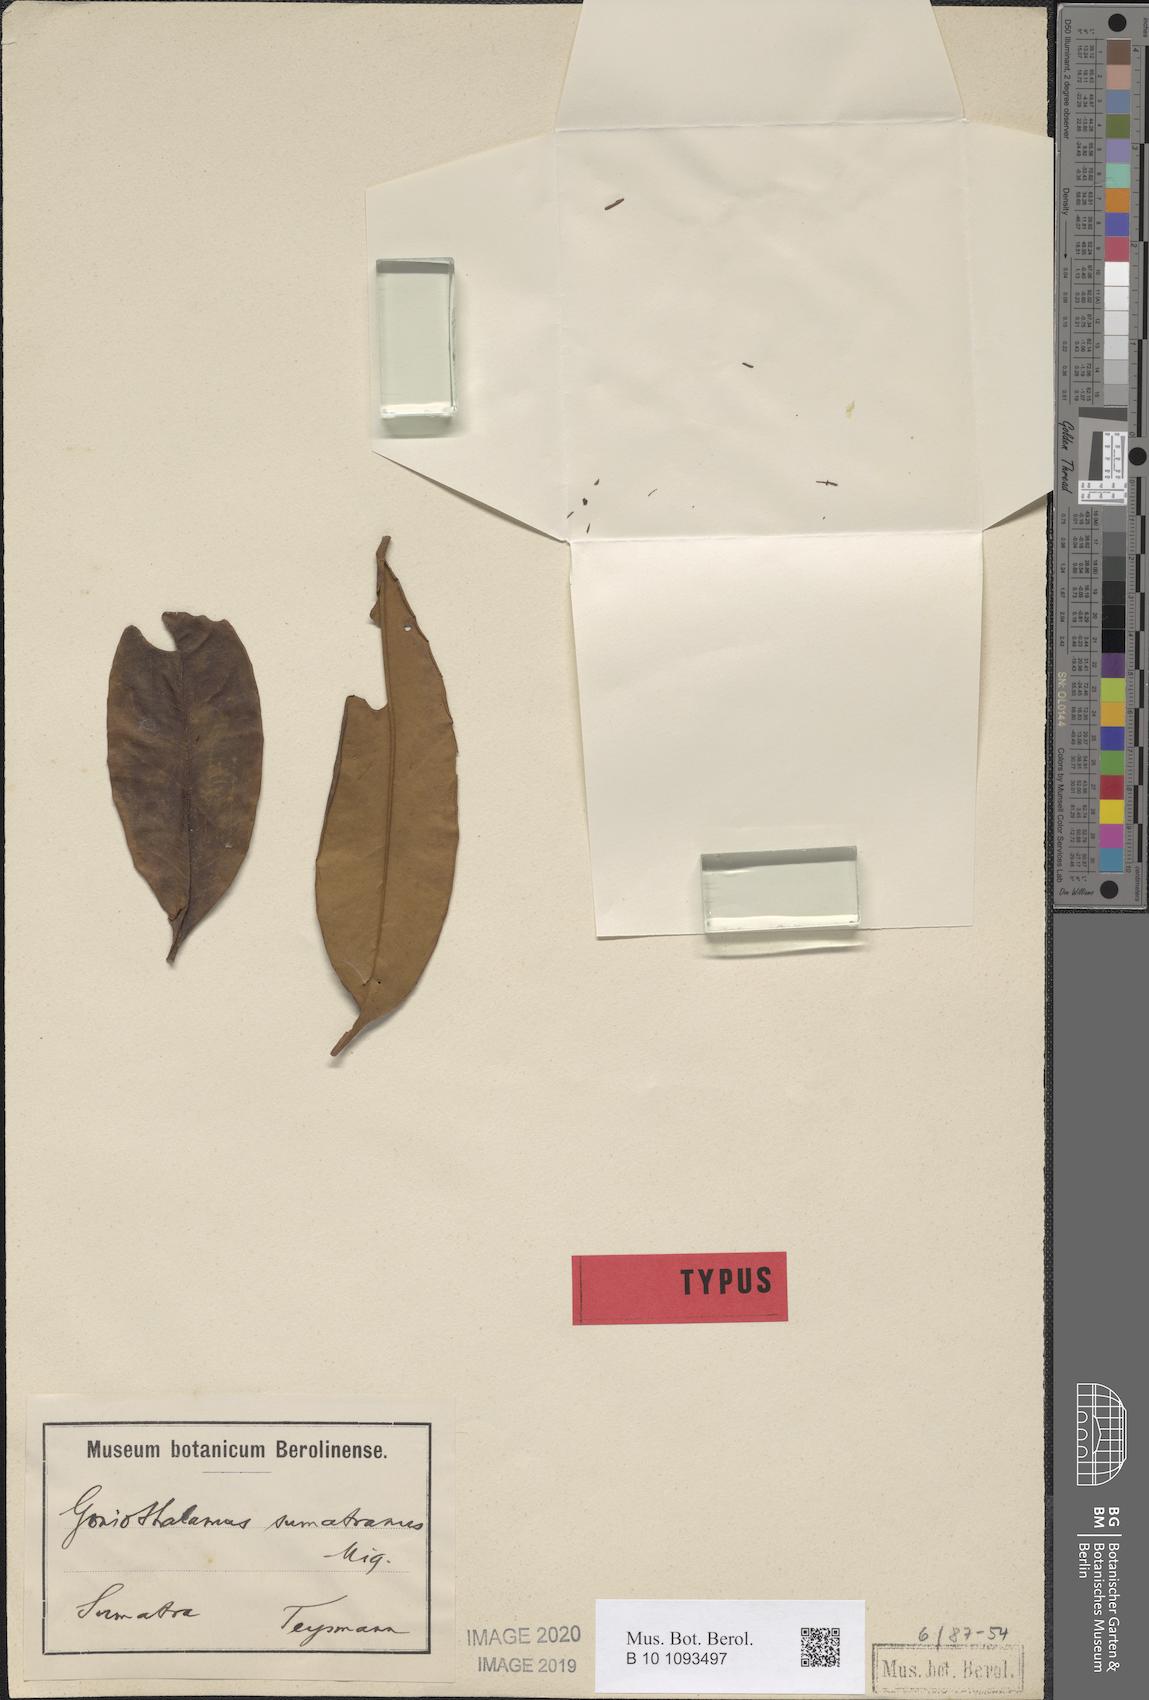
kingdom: Plantae
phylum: Tracheophyta
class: Magnoliopsida
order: Magnoliales
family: Annonaceae
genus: Goniothalamus
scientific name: Goniothalamus tapis
